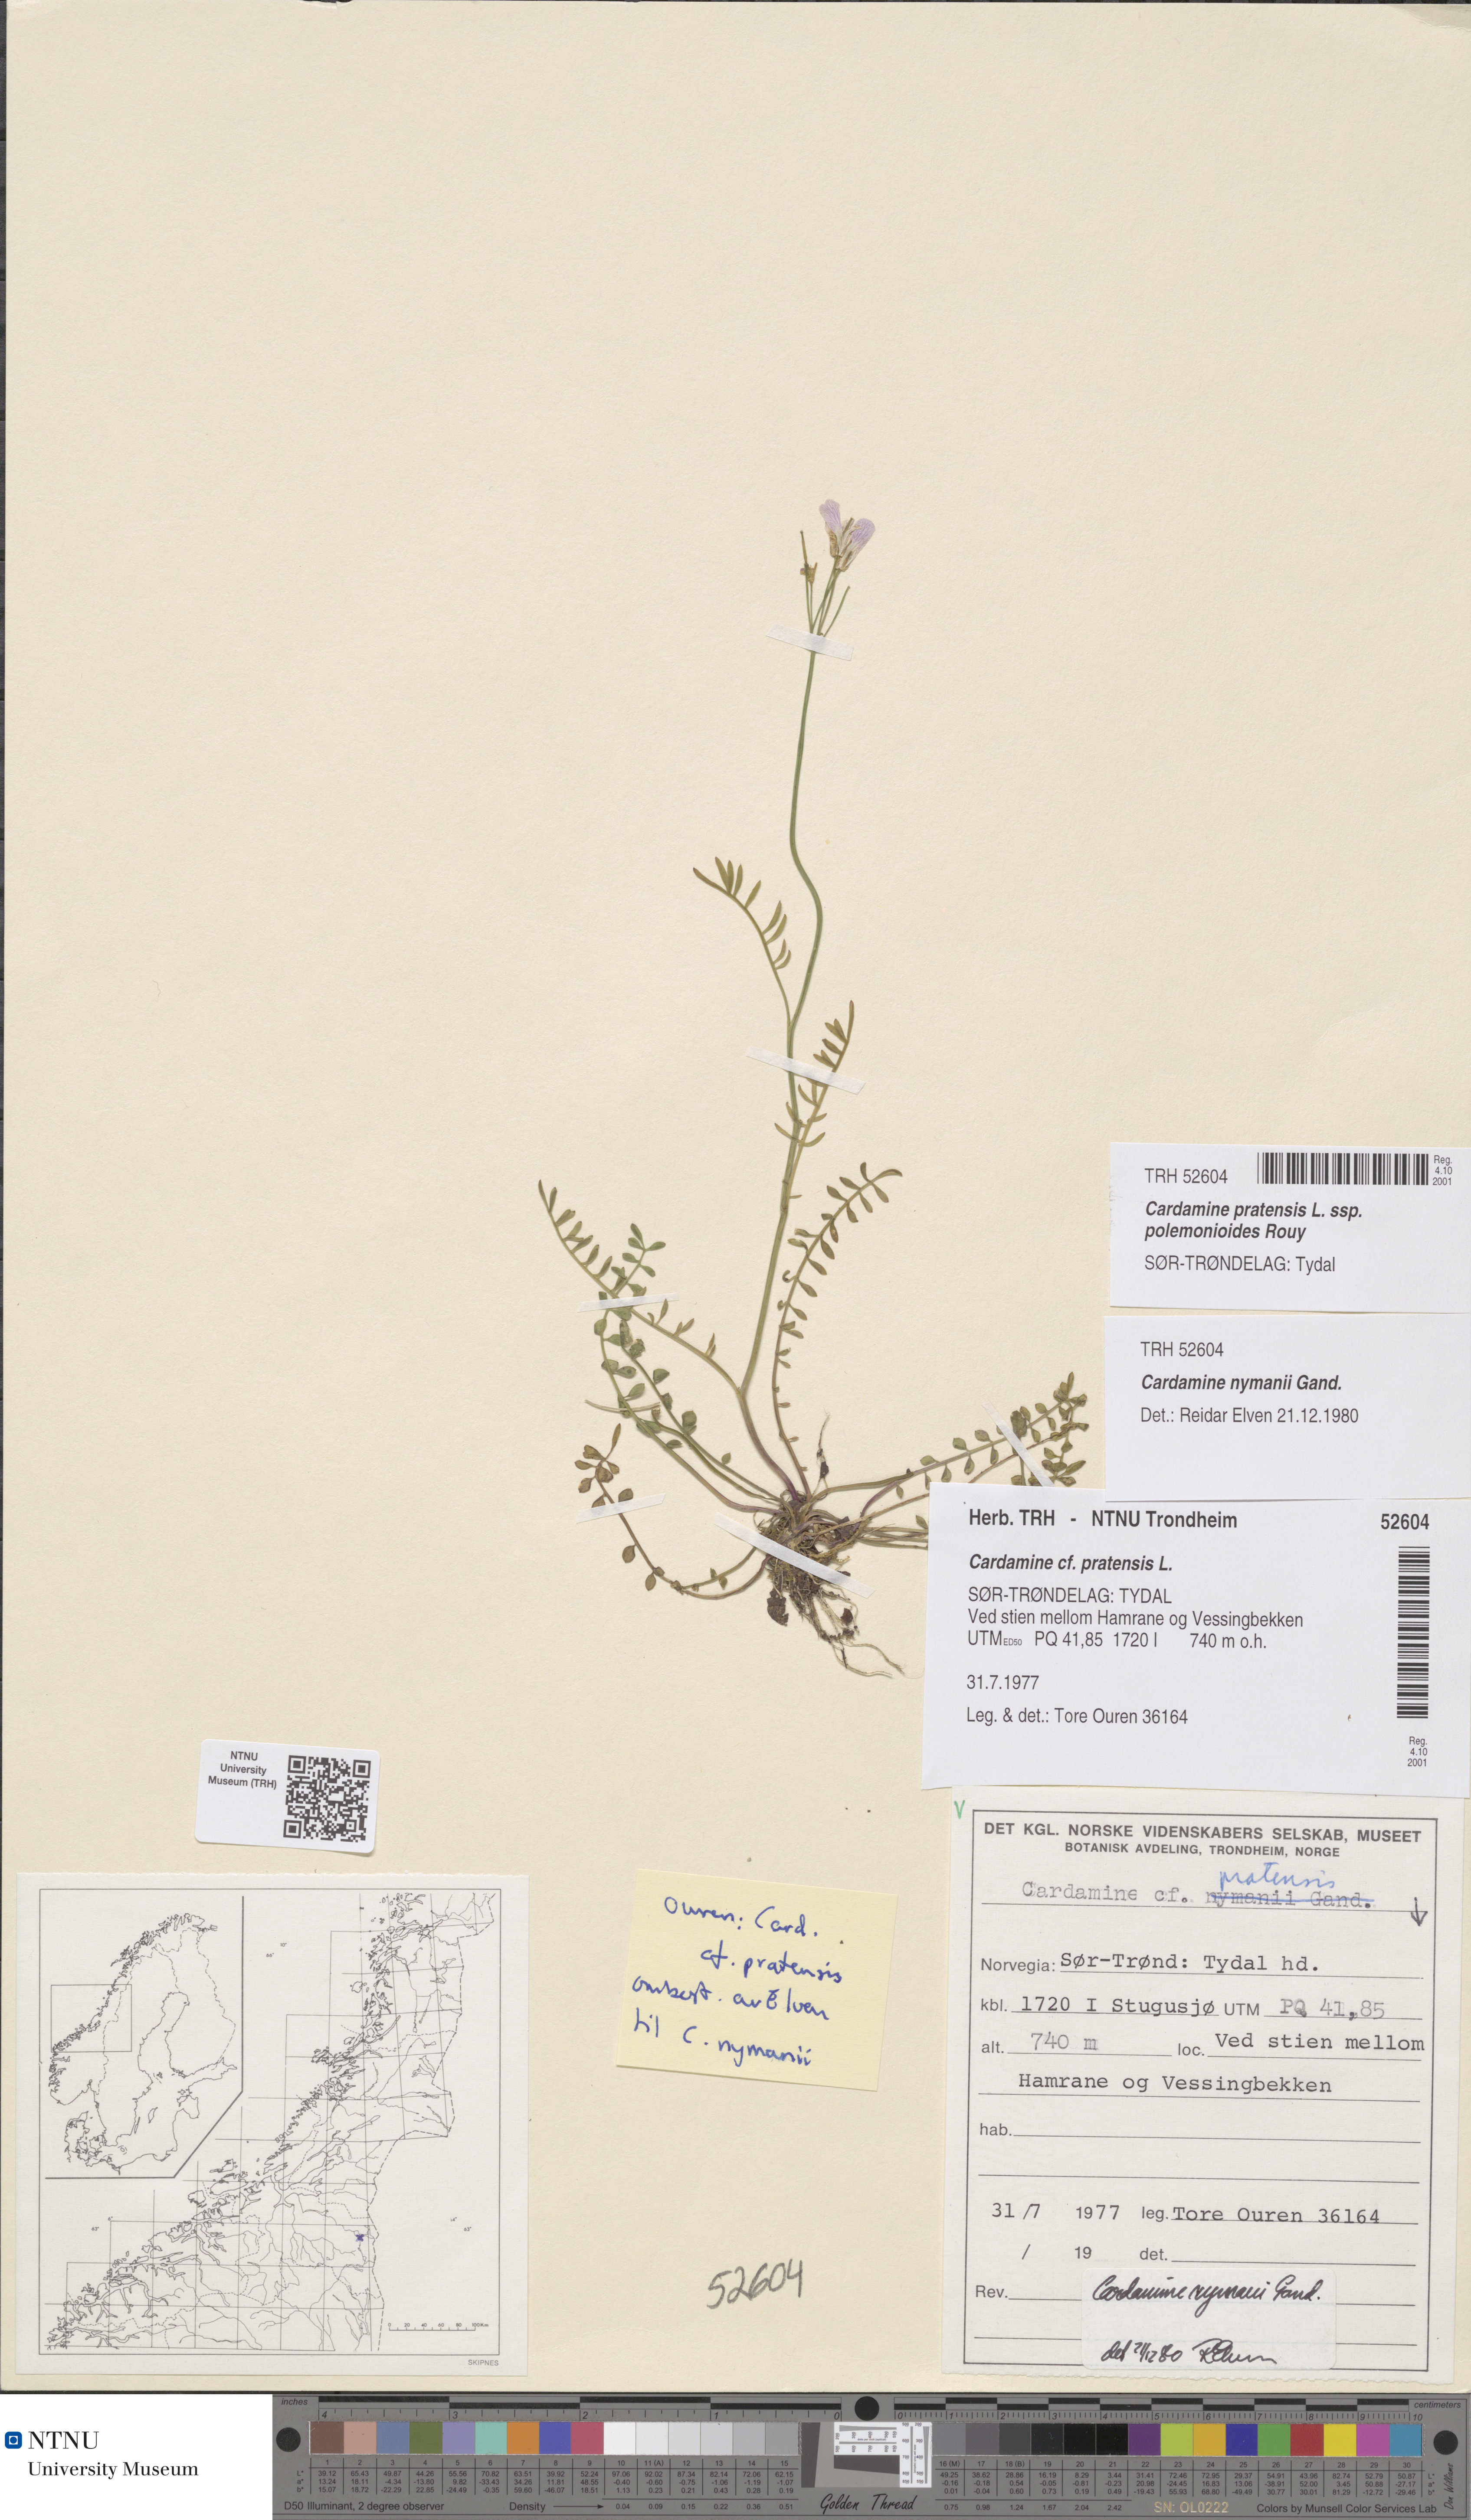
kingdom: Plantae
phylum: Tracheophyta
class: Magnoliopsida
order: Brassicales
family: Brassicaceae
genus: Cardamine
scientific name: Cardamine nymanii
